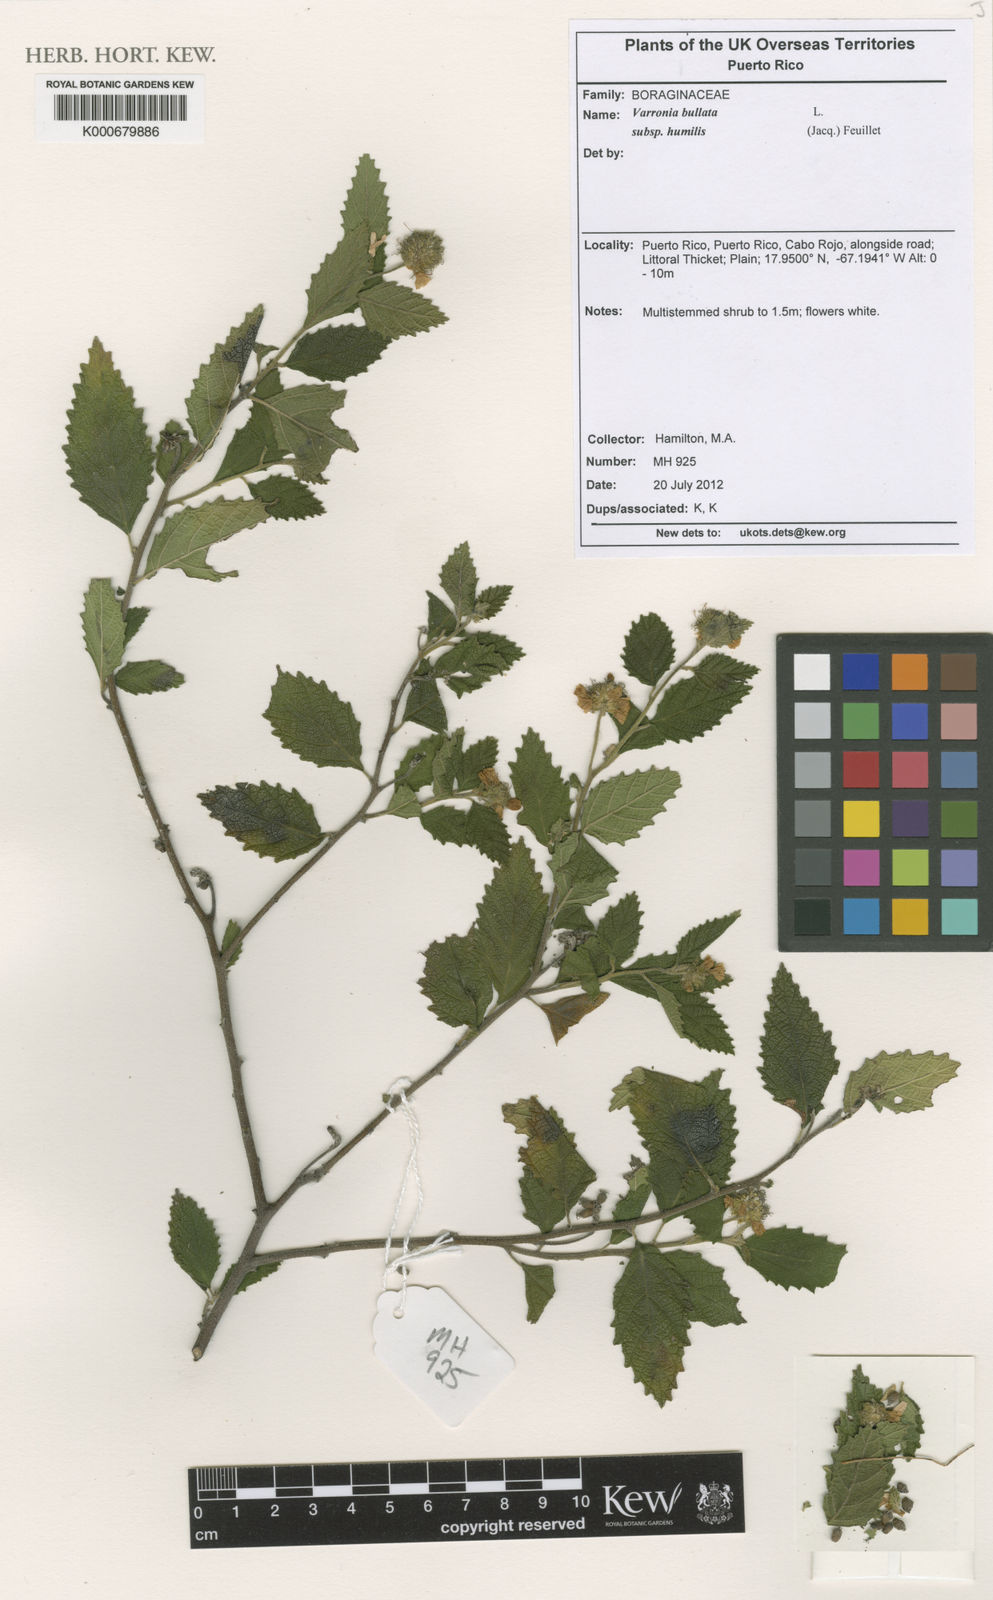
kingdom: Plantae
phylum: Tracheophyta
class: Magnoliopsida
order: Boraginales
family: Cordiaceae
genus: Varronia
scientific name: Varronia bullata
